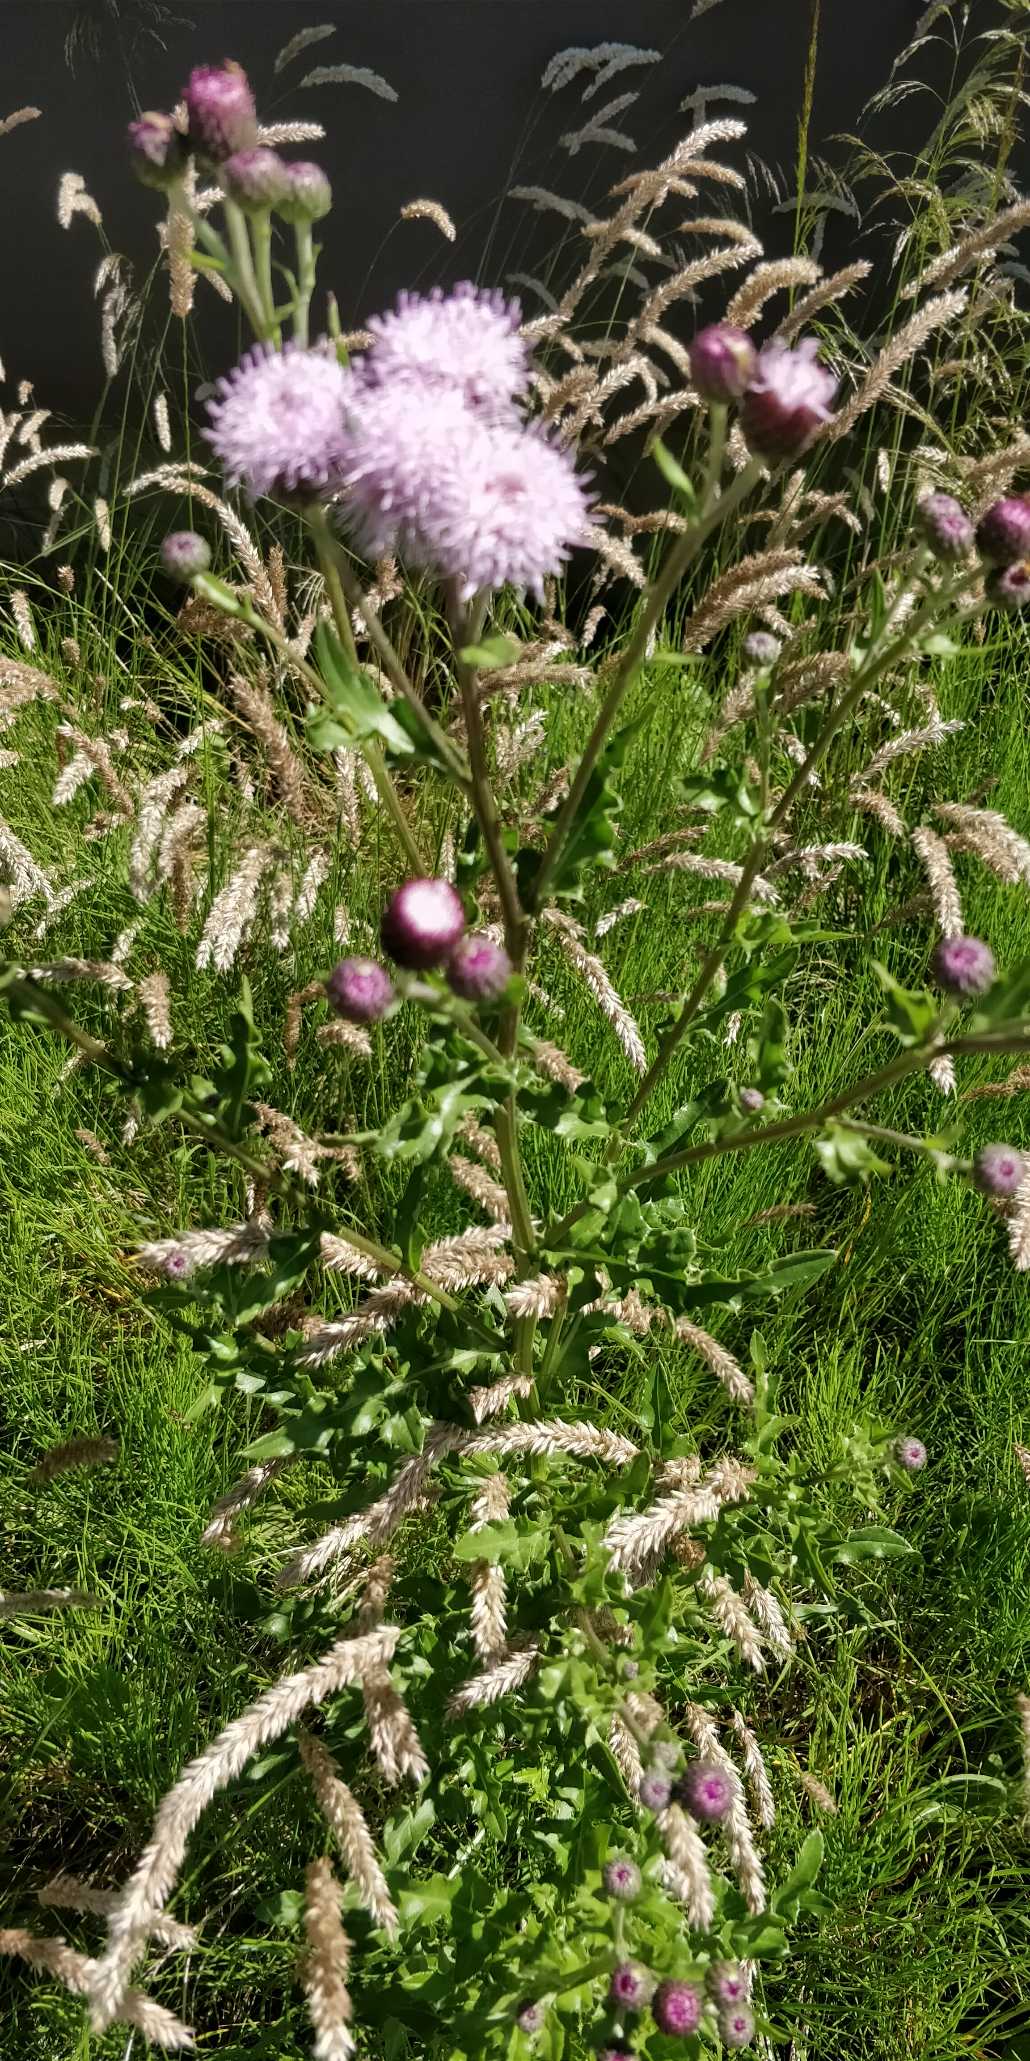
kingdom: Plantae
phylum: Tracheophyta
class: Magnoliopsida
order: Asterales
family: Asteraceae
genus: Cirsium
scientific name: Cirsium arvense
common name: Ager-tidsel
